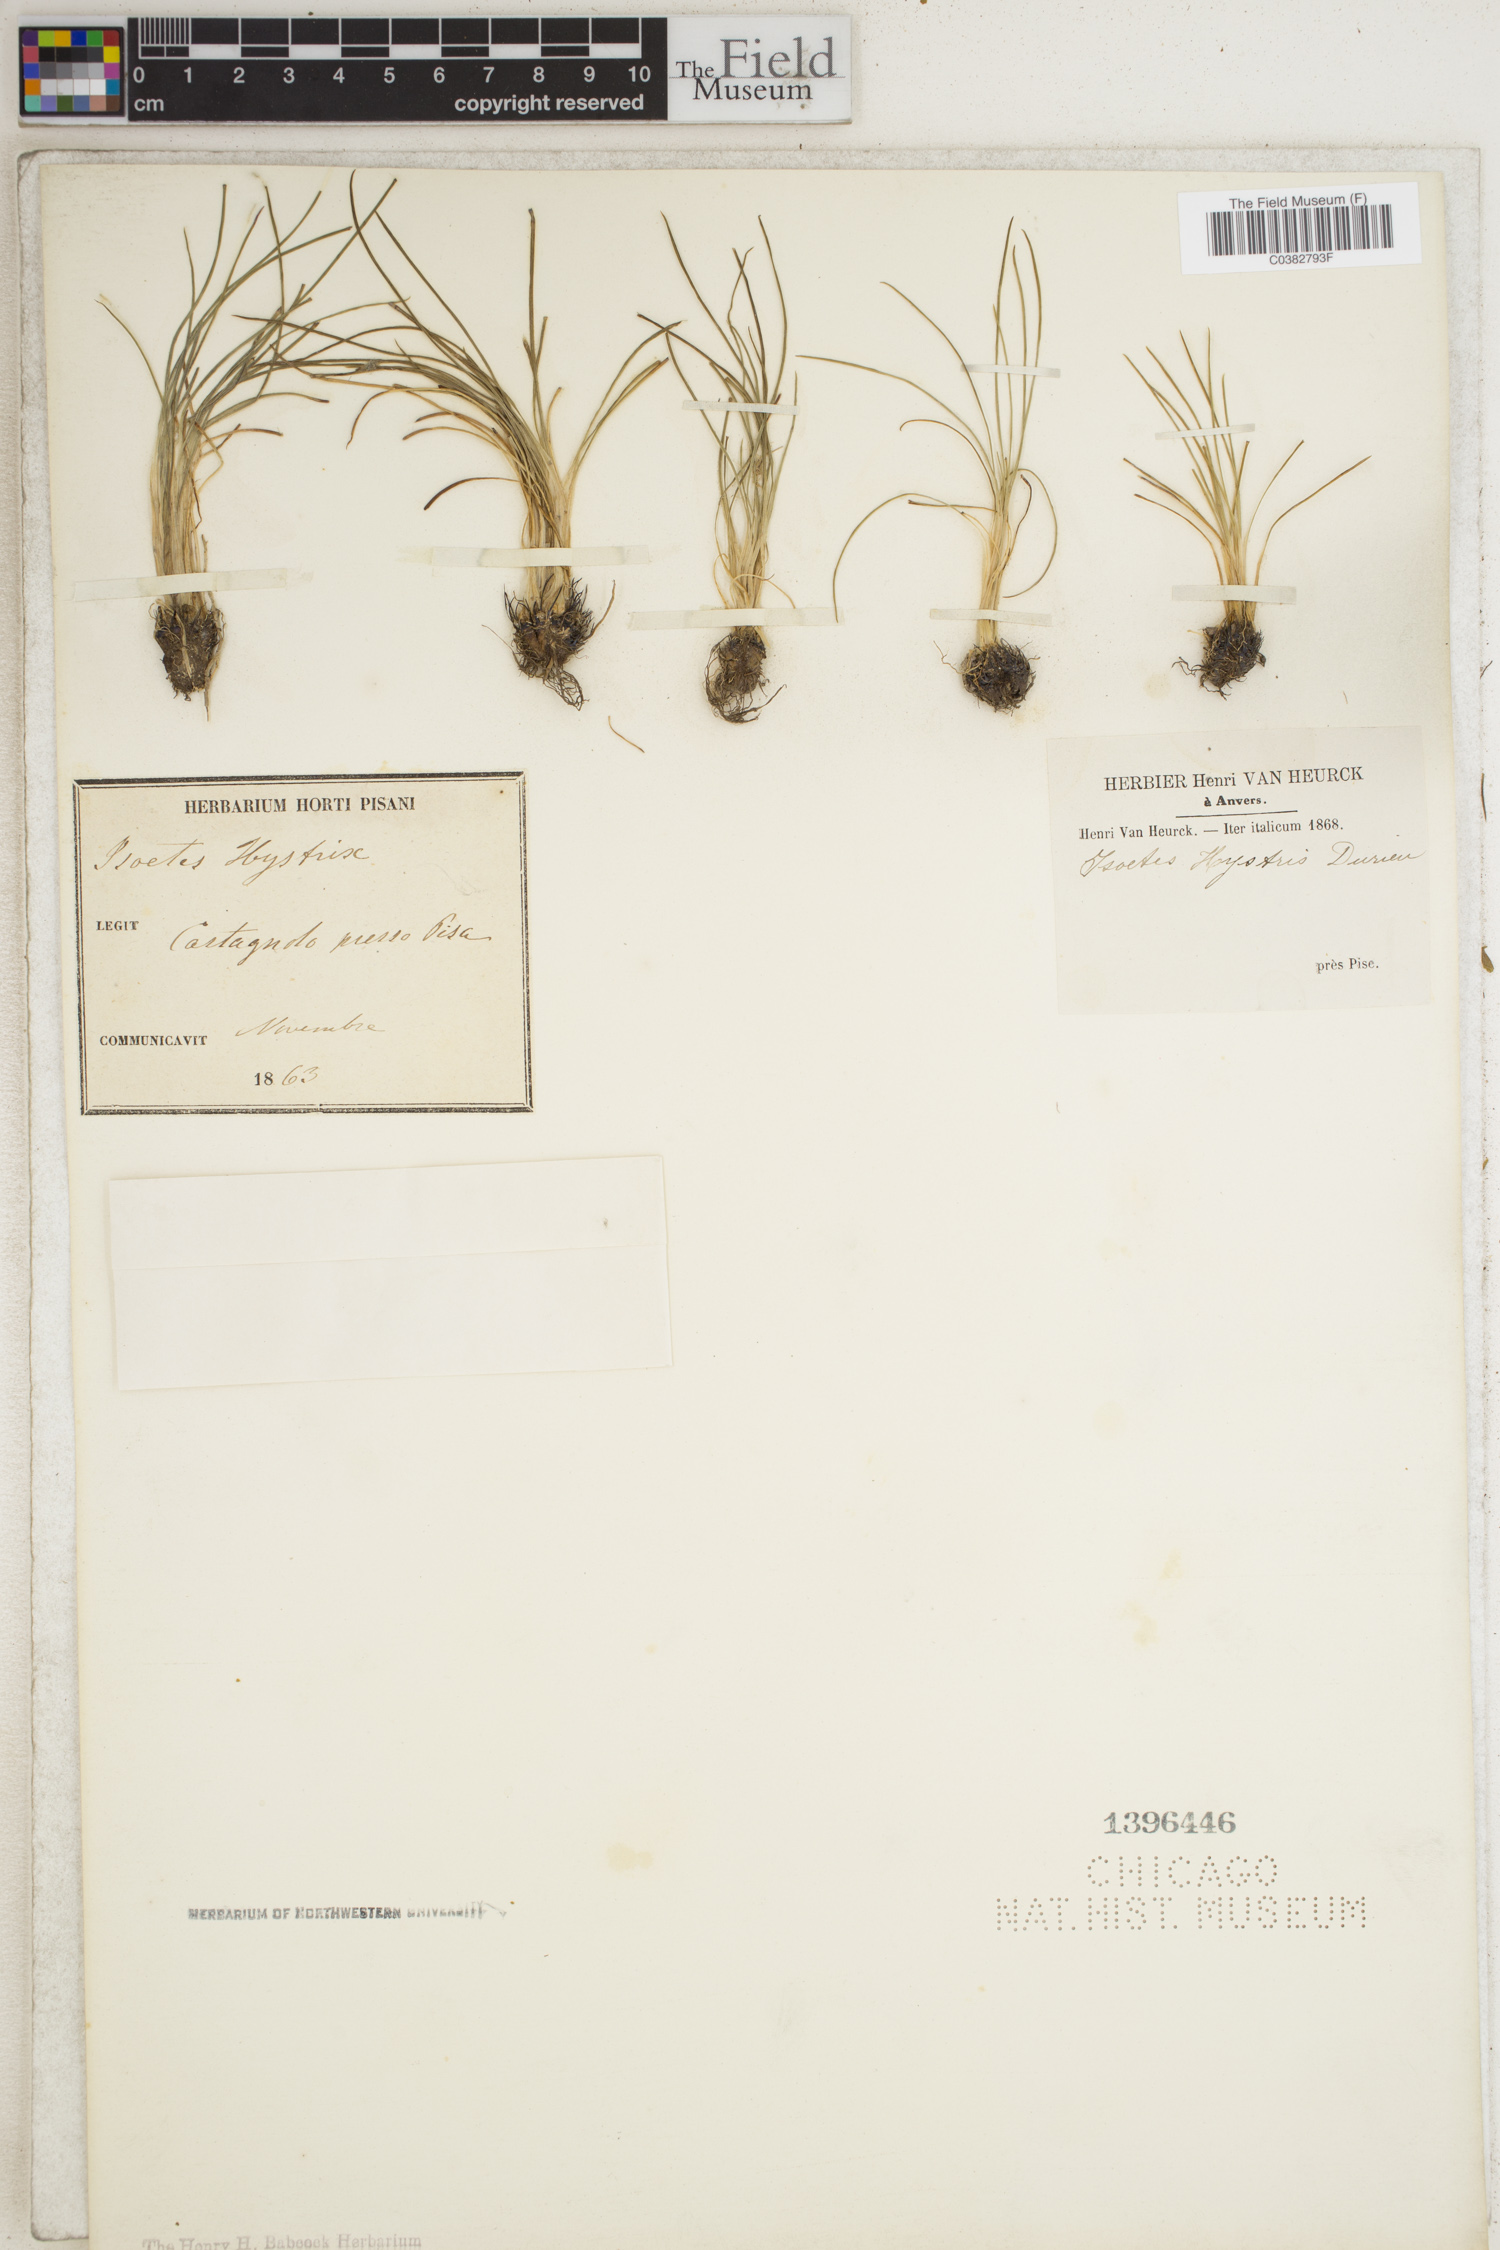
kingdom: Plantae
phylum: Tracheophyta
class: Lycopodiopsida
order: Isoetales
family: Isoetaceae
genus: Isoetes
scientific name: Isoetes histrix
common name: Land quillwort
